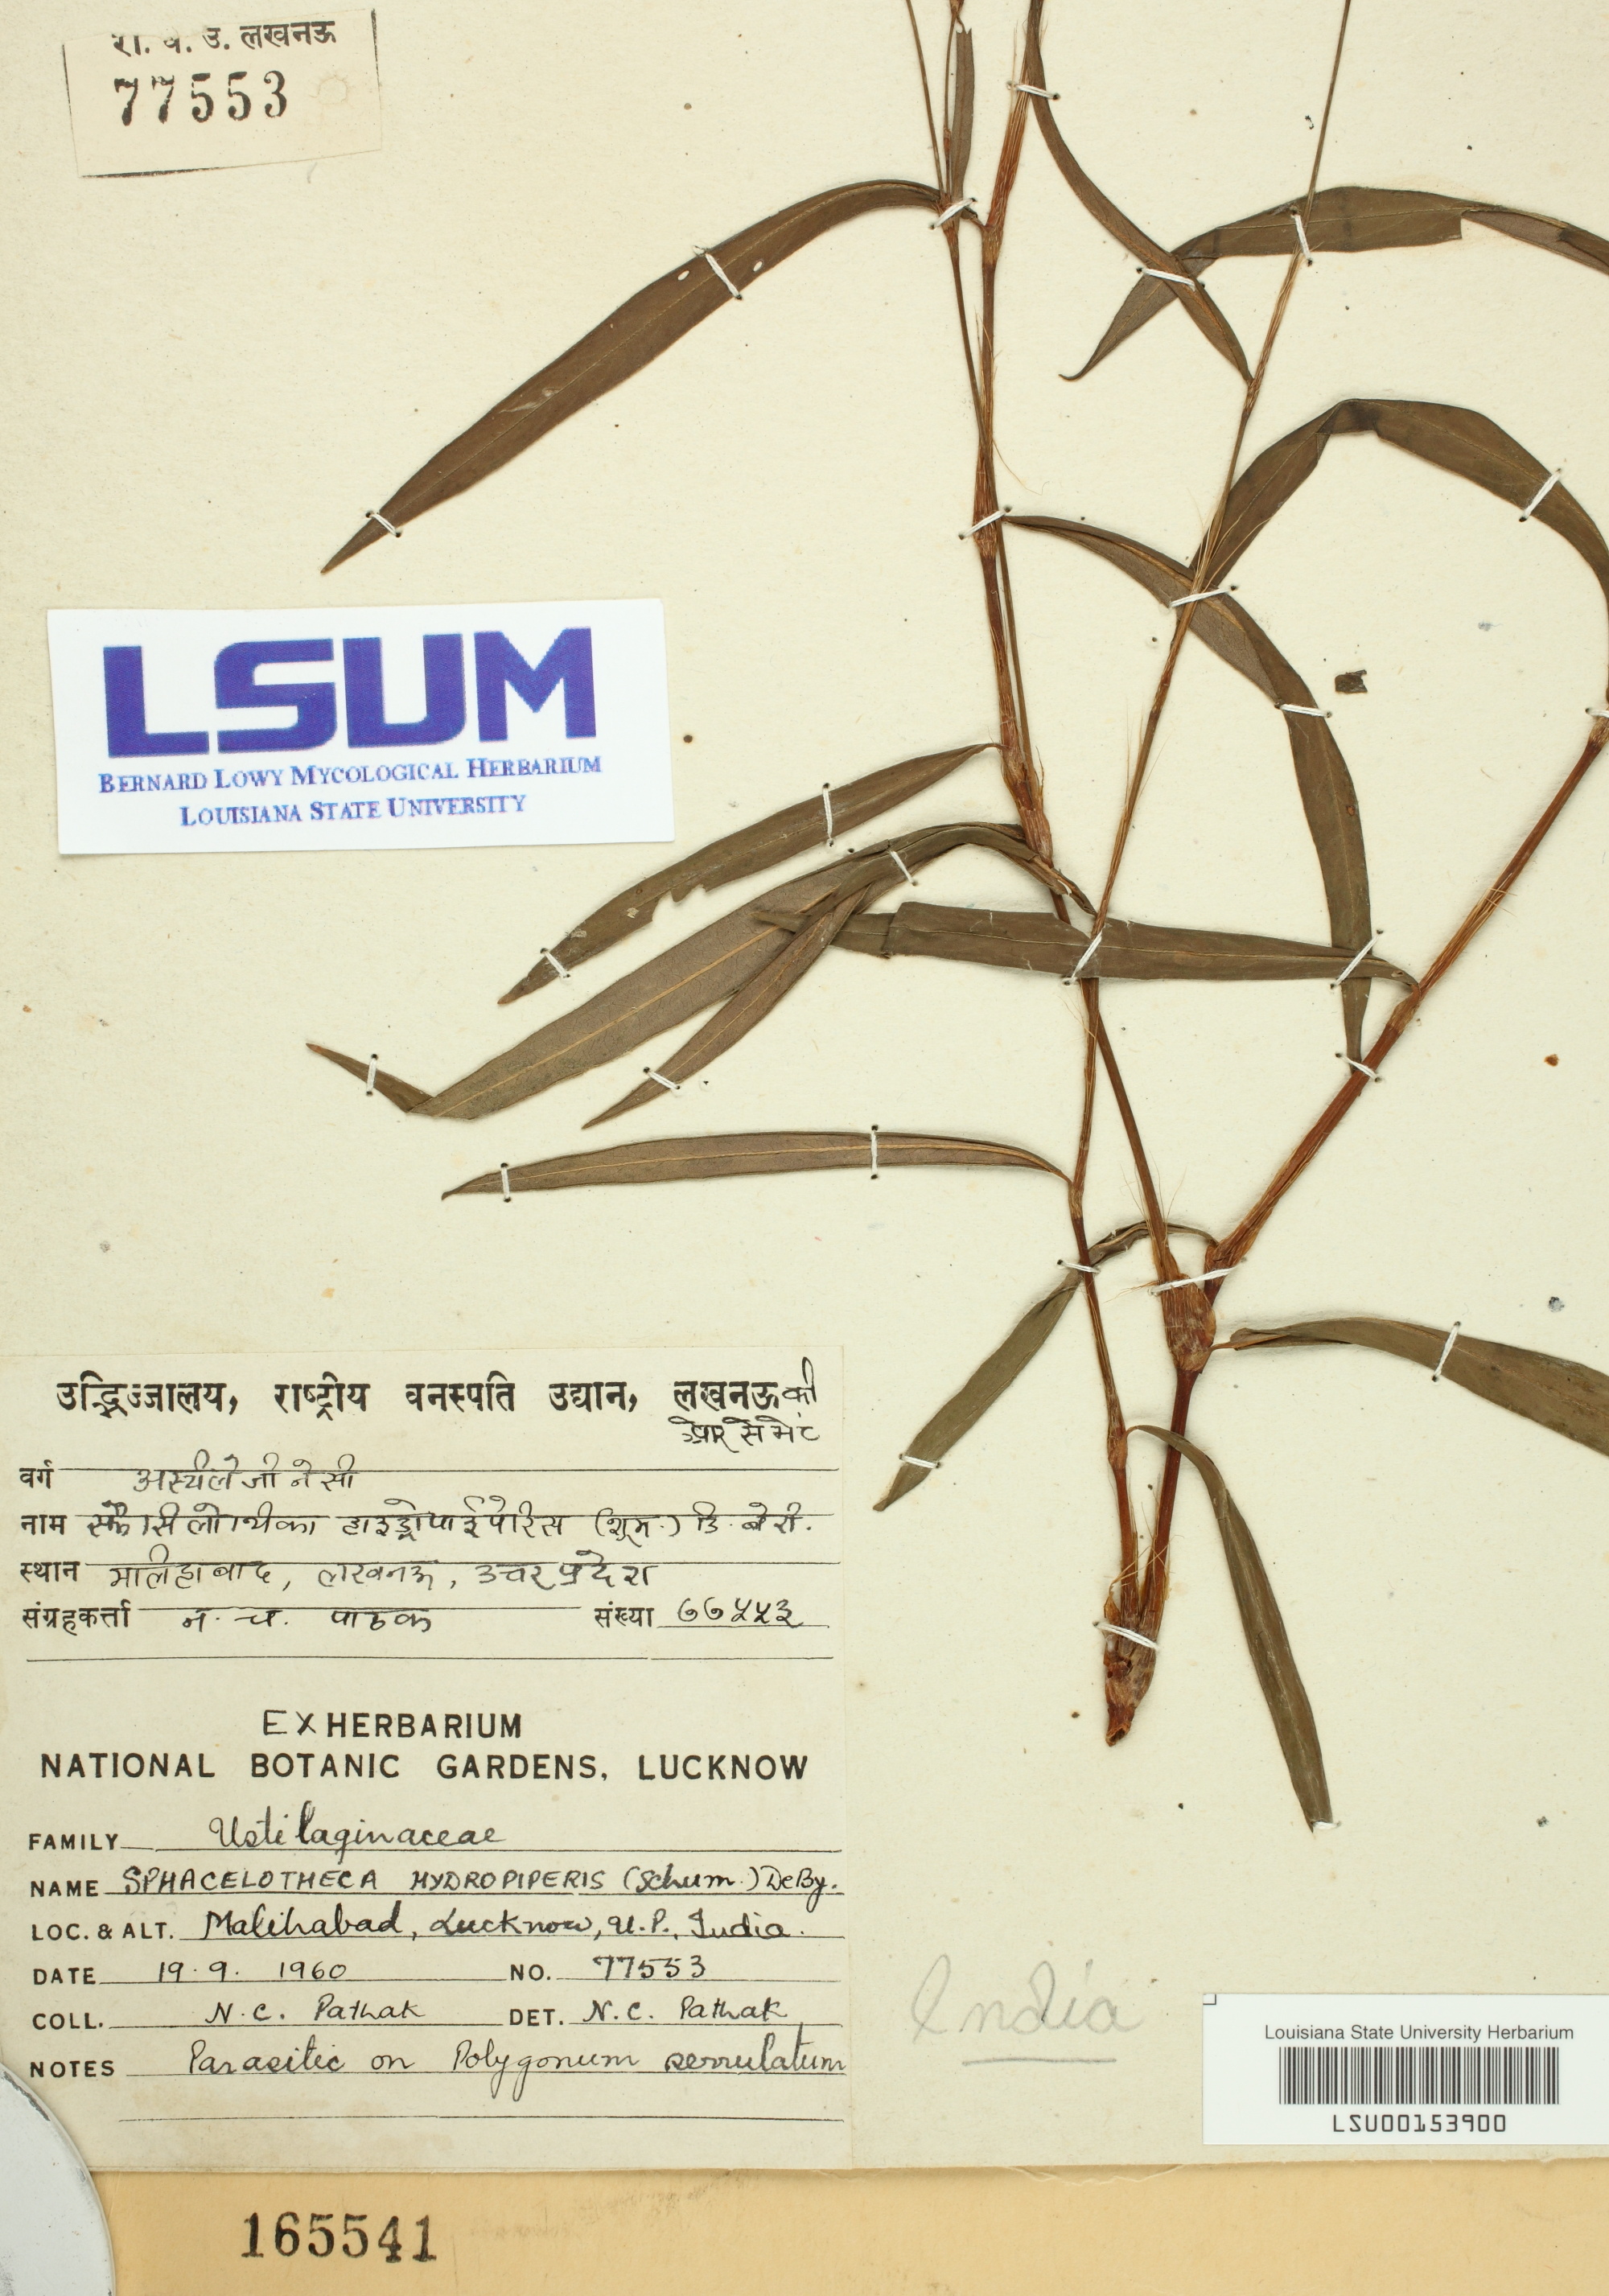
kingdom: Fungi
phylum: Basidiomycota
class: Microbotryomycetes
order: Microbotryales
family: Microbotryaceae
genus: Sphacelotheca
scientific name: Sphacelotheca hydropiperis
